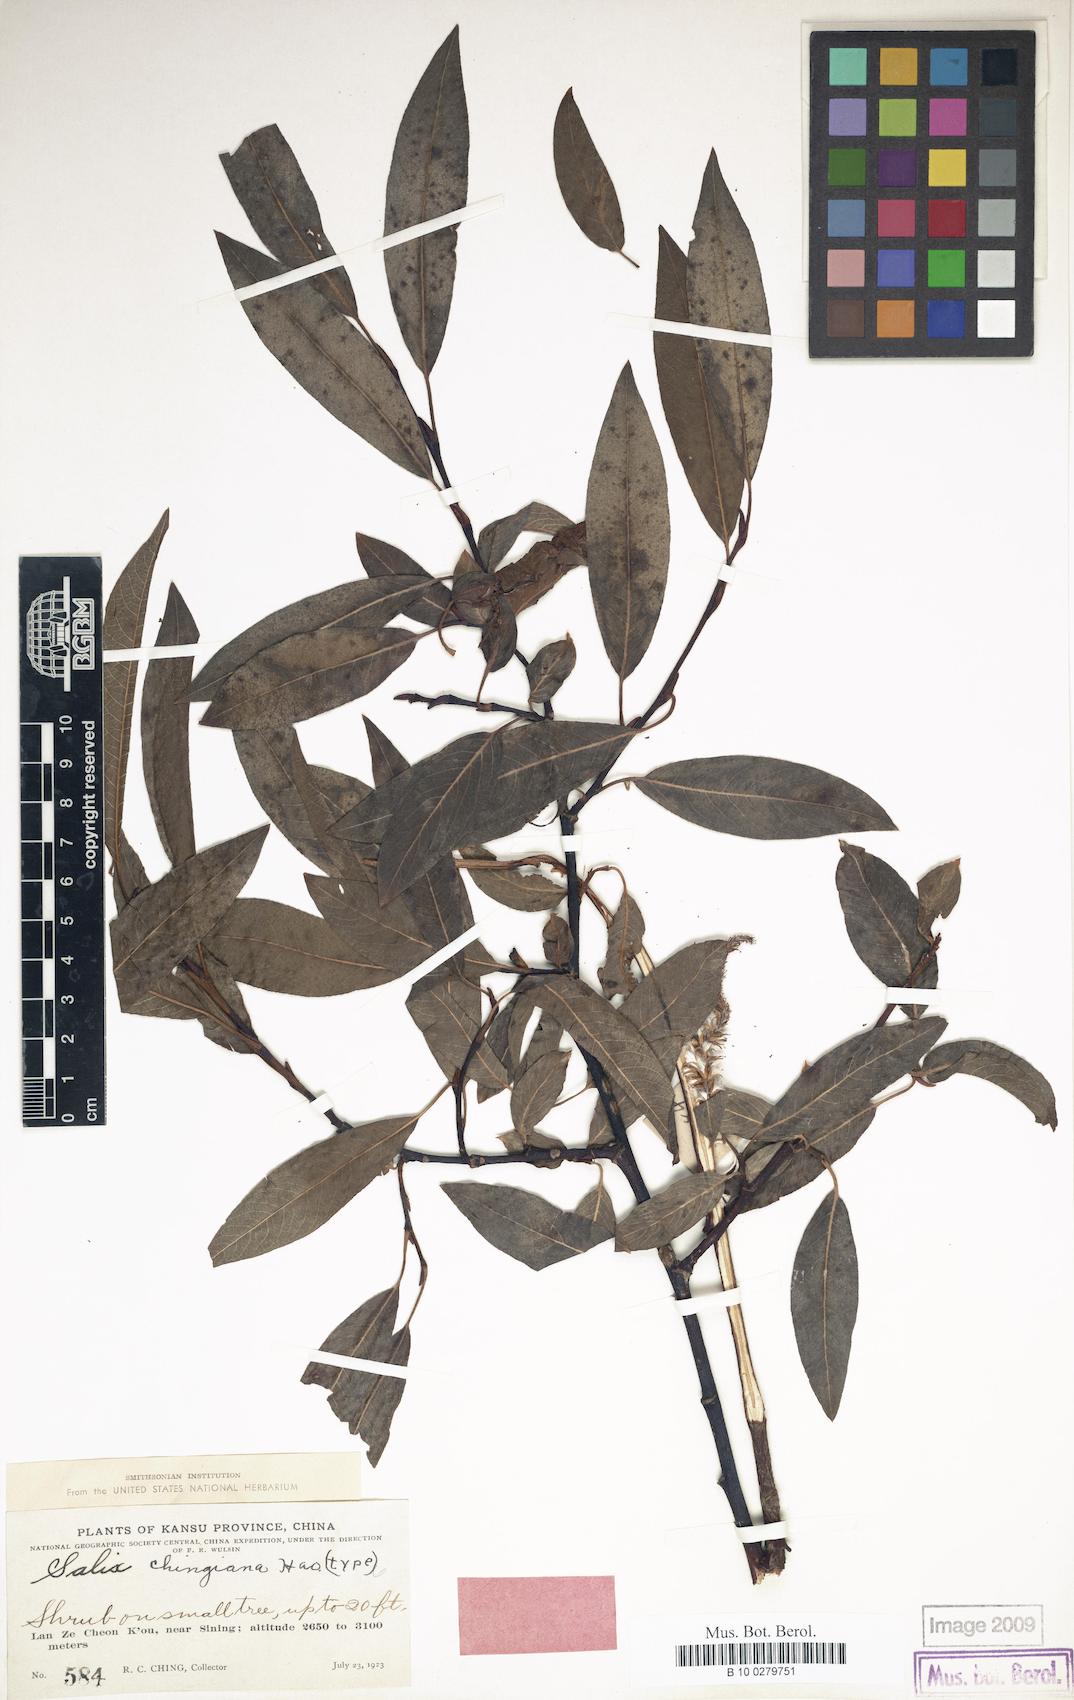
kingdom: Plantae
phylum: Tracheophyta
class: Magnoliopsida
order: Malpighiales
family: Salicaceae
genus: Salix
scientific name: Salix chingiana
